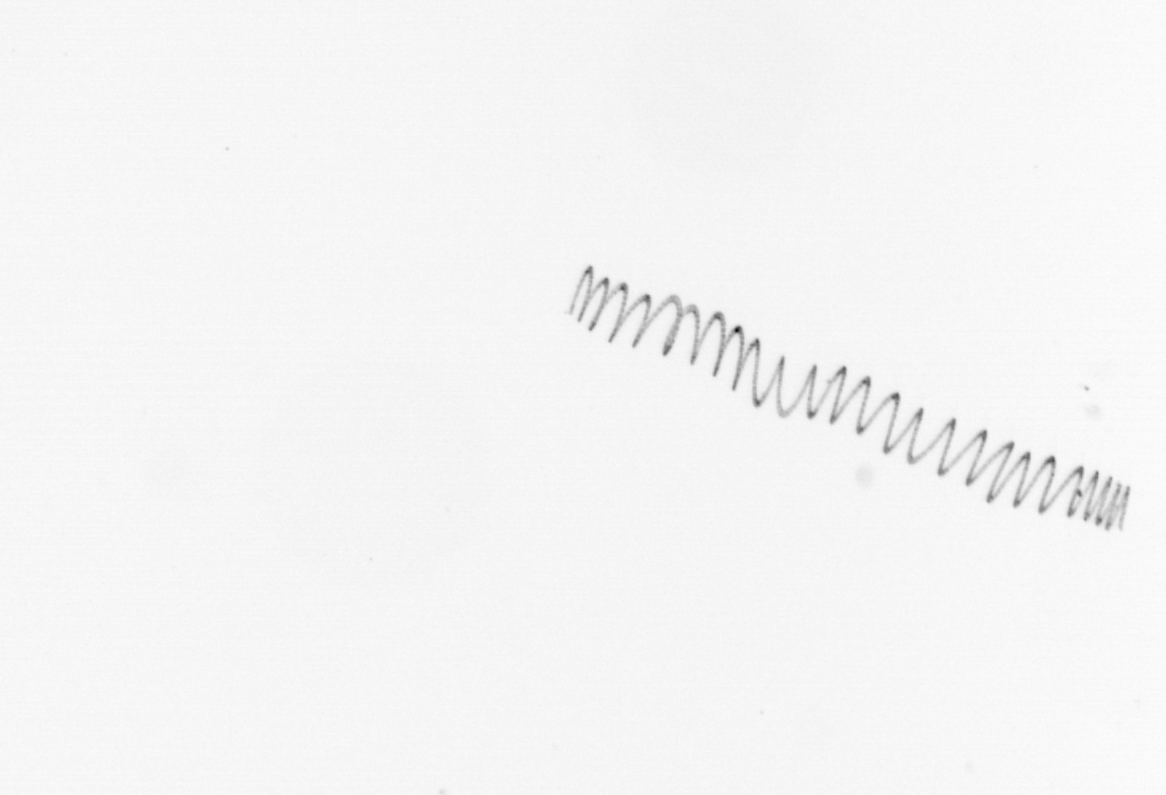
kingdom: Chromista
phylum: Ochrophyta
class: Bacillariophyceae
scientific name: Bacillariophyceae
